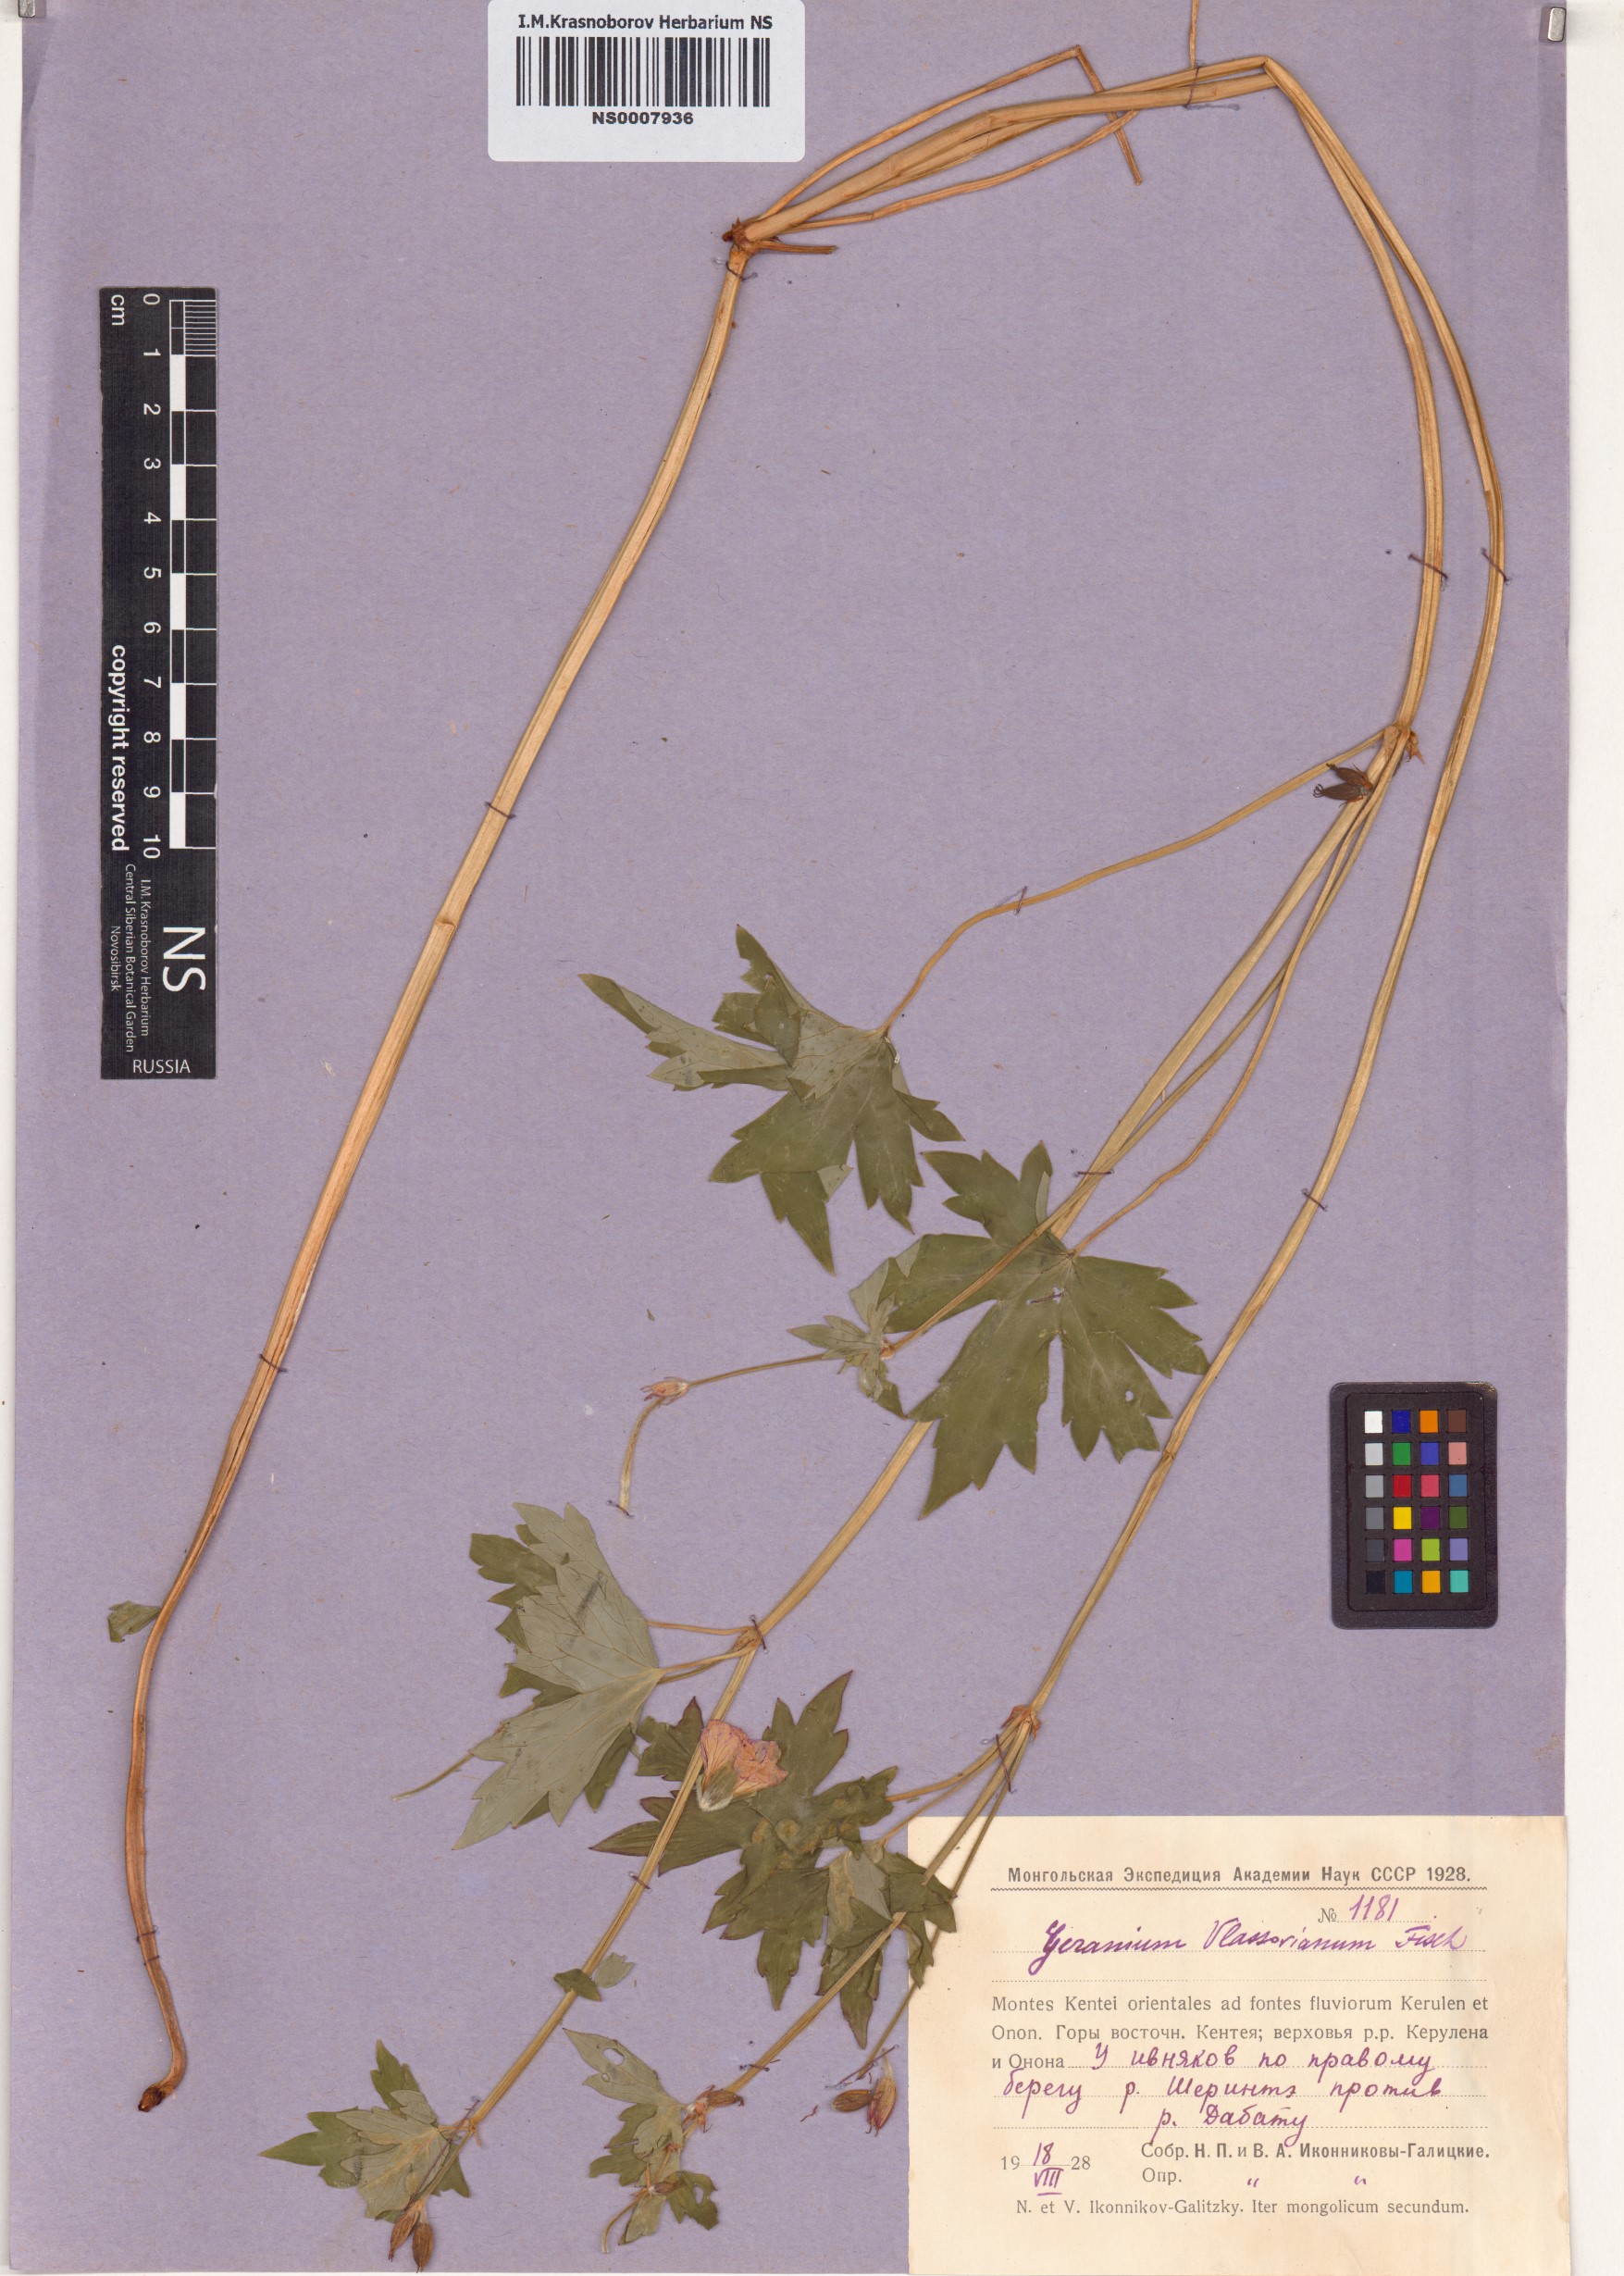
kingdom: Plantae
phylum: Tracheophyta
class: Magnoliopsida
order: Geraniales
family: Geraniaceae
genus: Geranium
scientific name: Geranium wlassovianum
